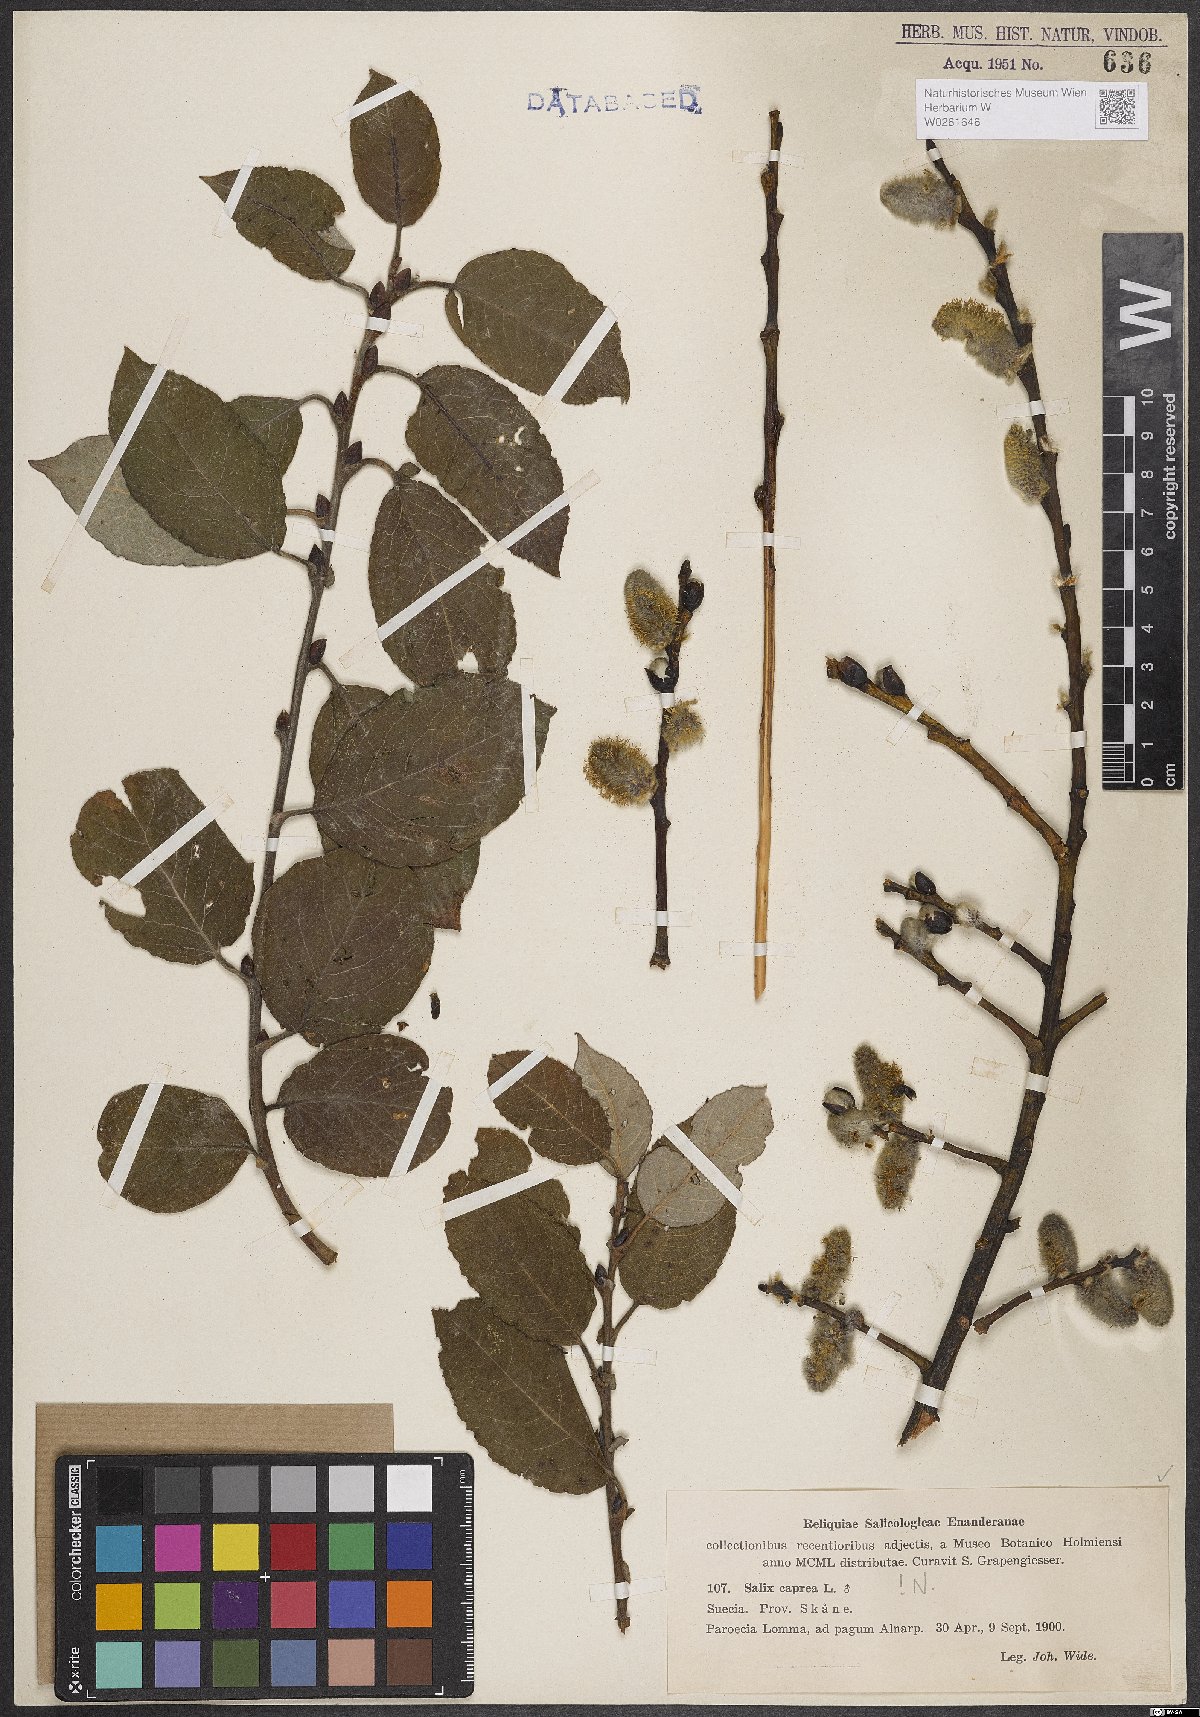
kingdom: Plantae
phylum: Tracheophyta
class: Magnoliopsida
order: Malpighiales
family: Salicaceae
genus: Salix
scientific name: Salix caprea
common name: Goat willow
